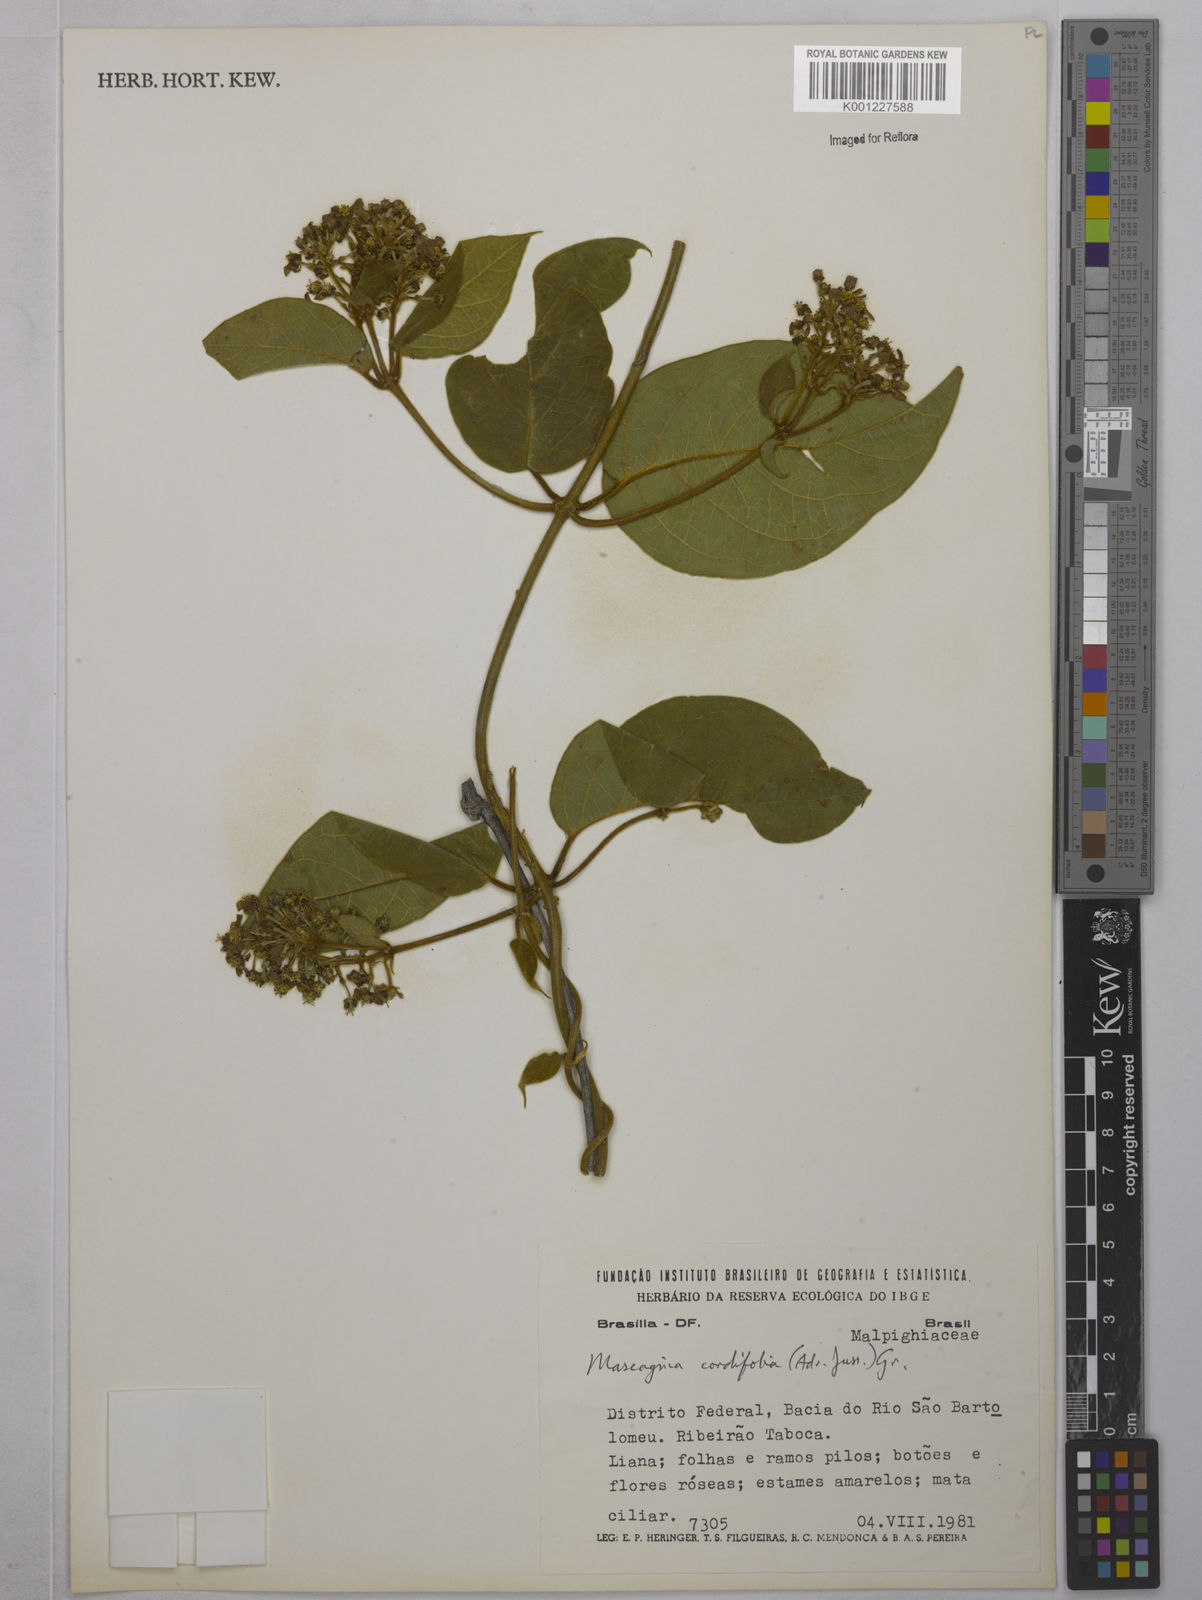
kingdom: Plantae
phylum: Tracheophyta
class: Magnoliopsida
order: Malpighiales
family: Malpighiaceae
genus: Mascagnia
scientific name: Mascagnia cordifolia
